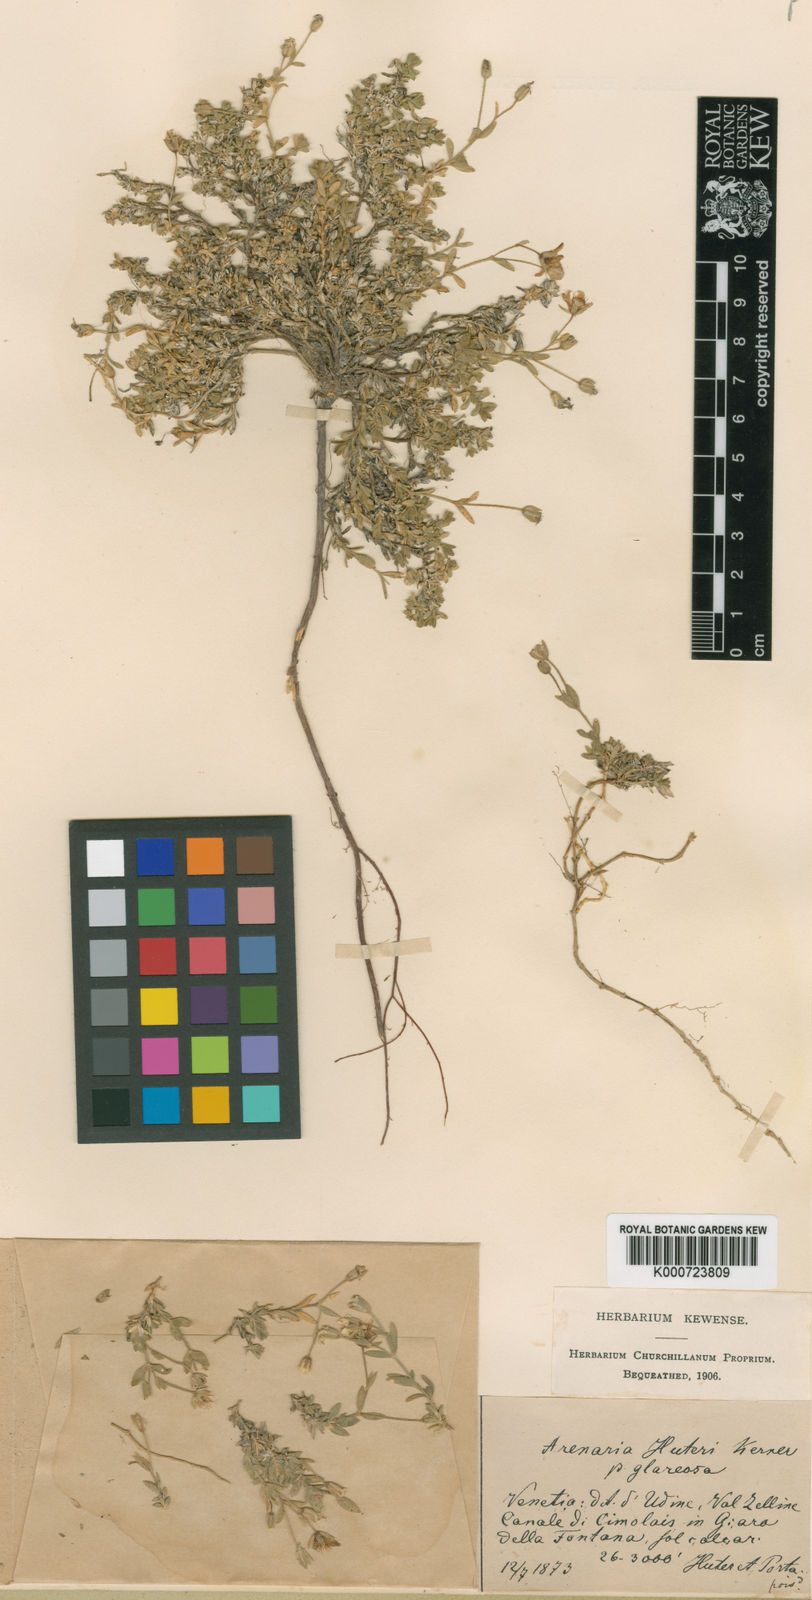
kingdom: Plantae
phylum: Tracheophyta
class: Magnoliopsida
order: Caryophyllales
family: Caryophyllaceae
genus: Arenaria
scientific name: Arenaria huteri
